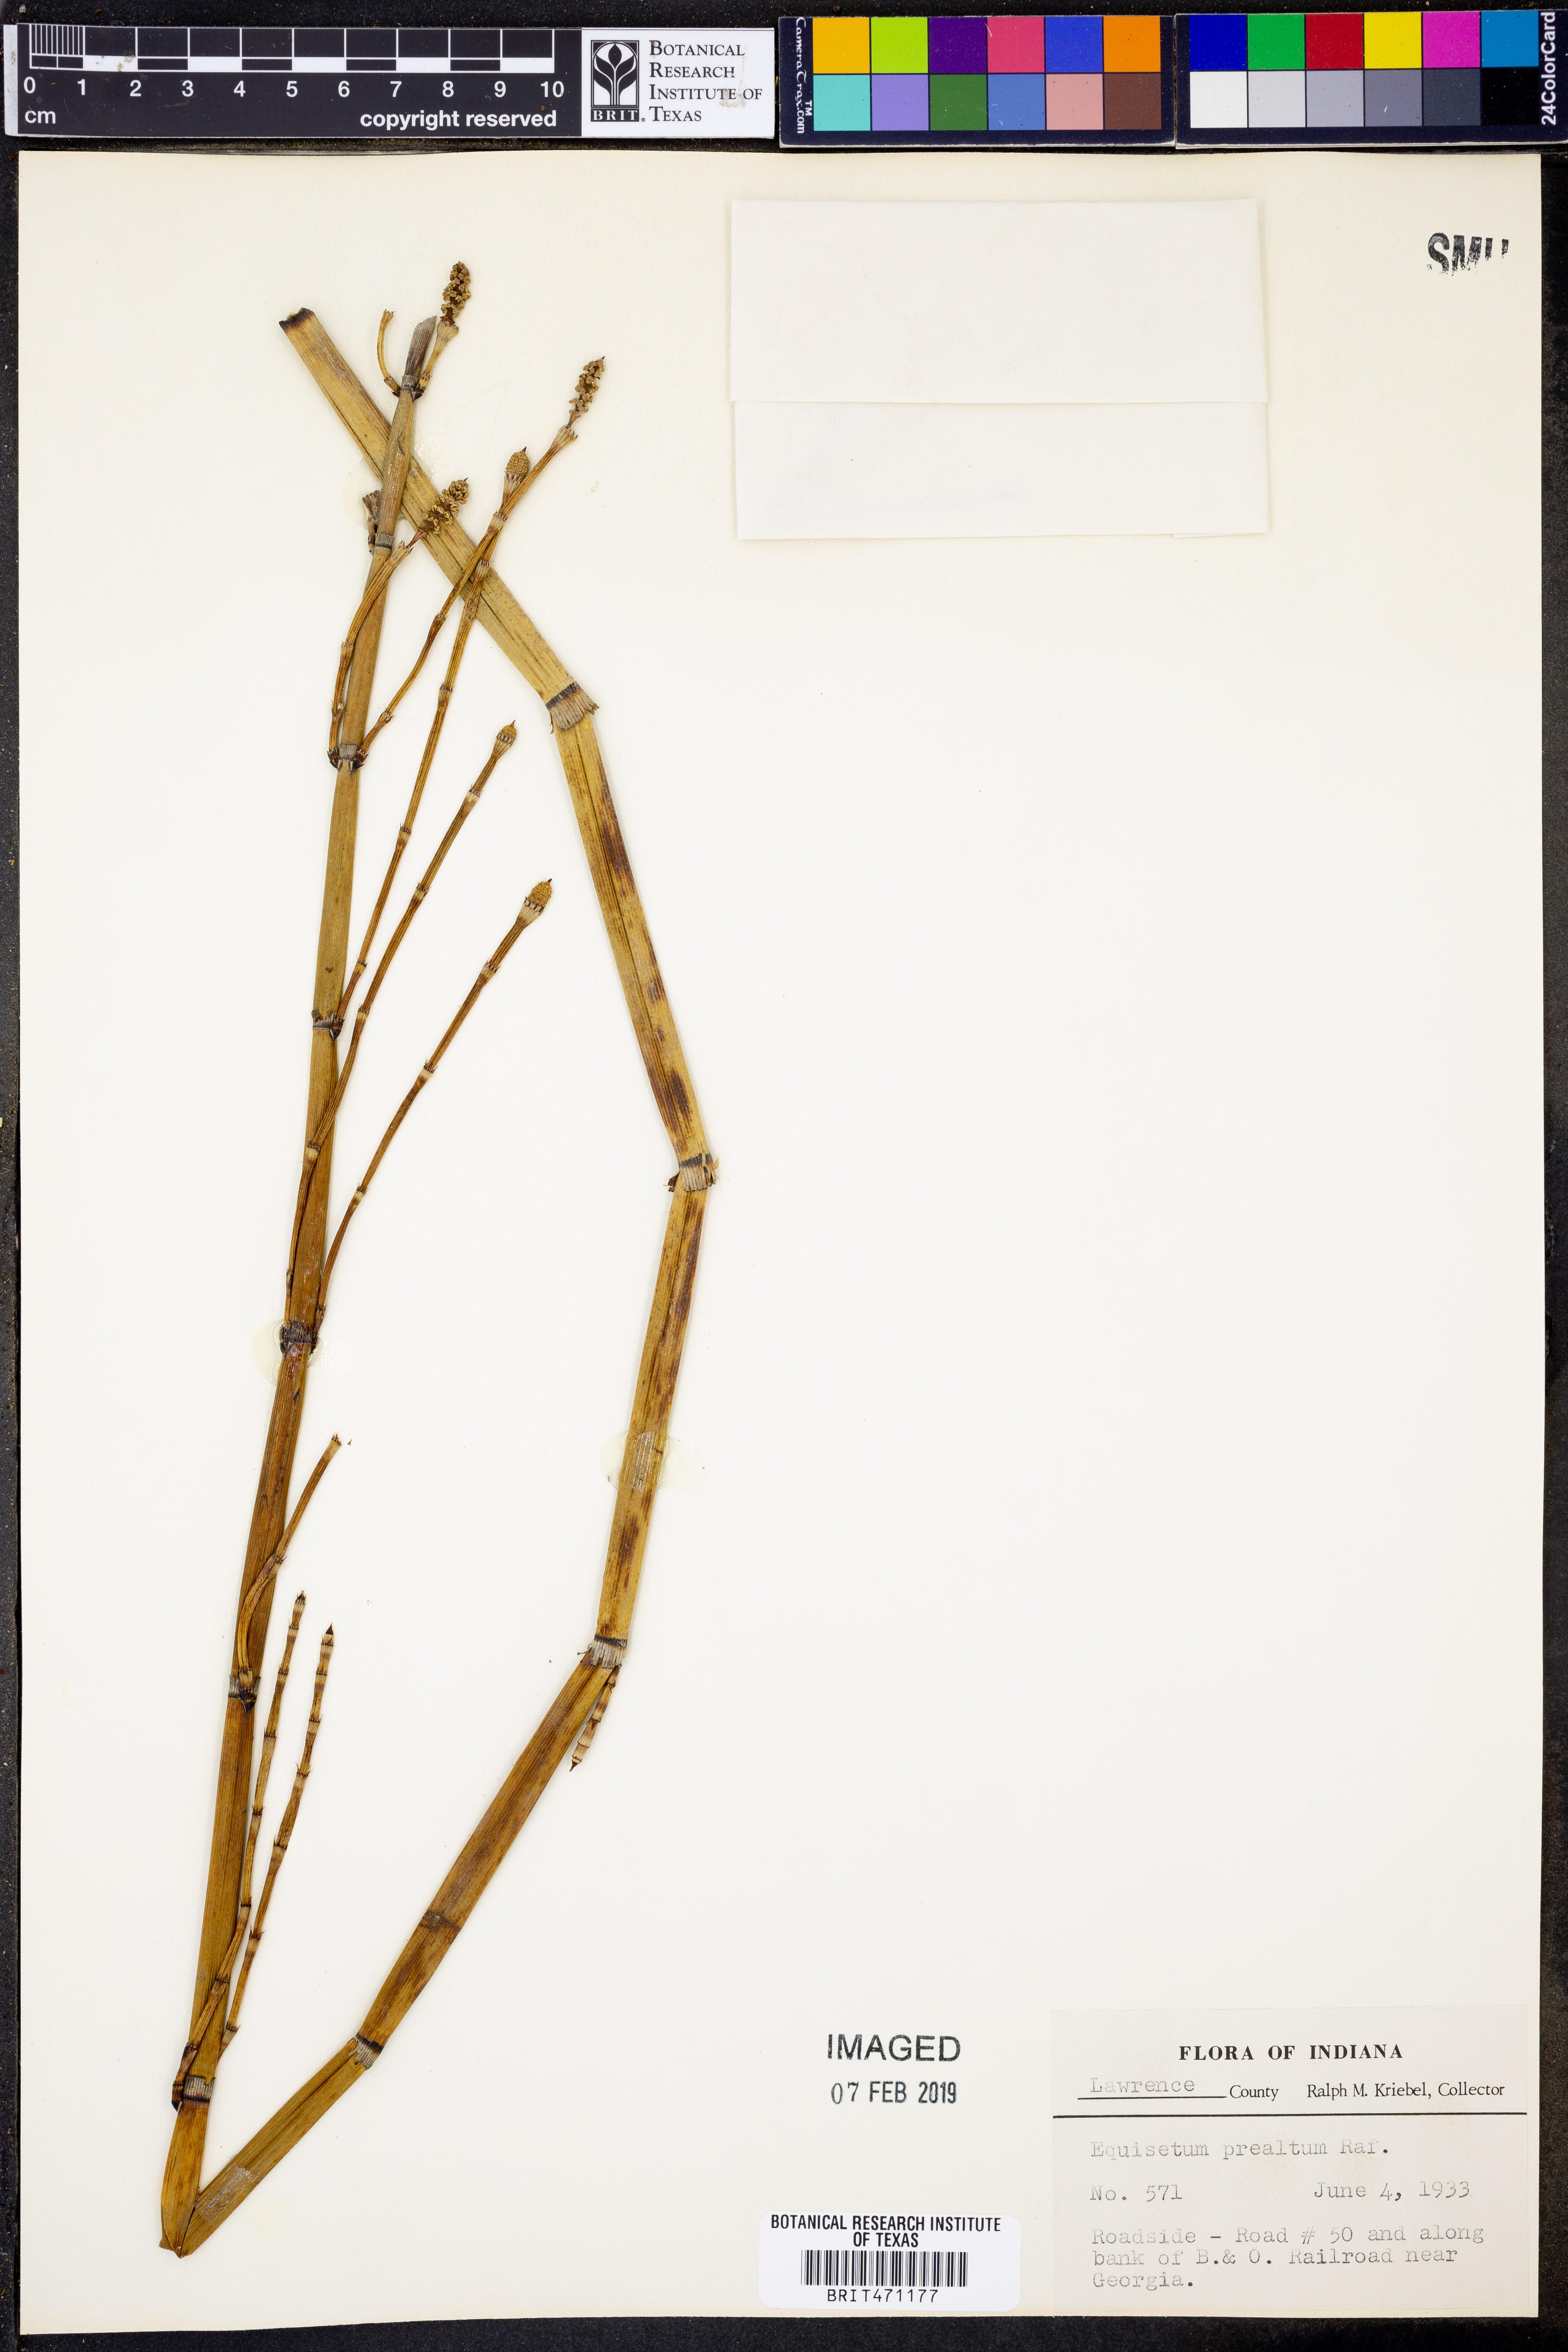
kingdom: Plantae
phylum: Tracheophyta
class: Polypodiopsida
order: Equisetales
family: Equisetaceae
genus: Equisetum
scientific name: Equisetum praealtum
